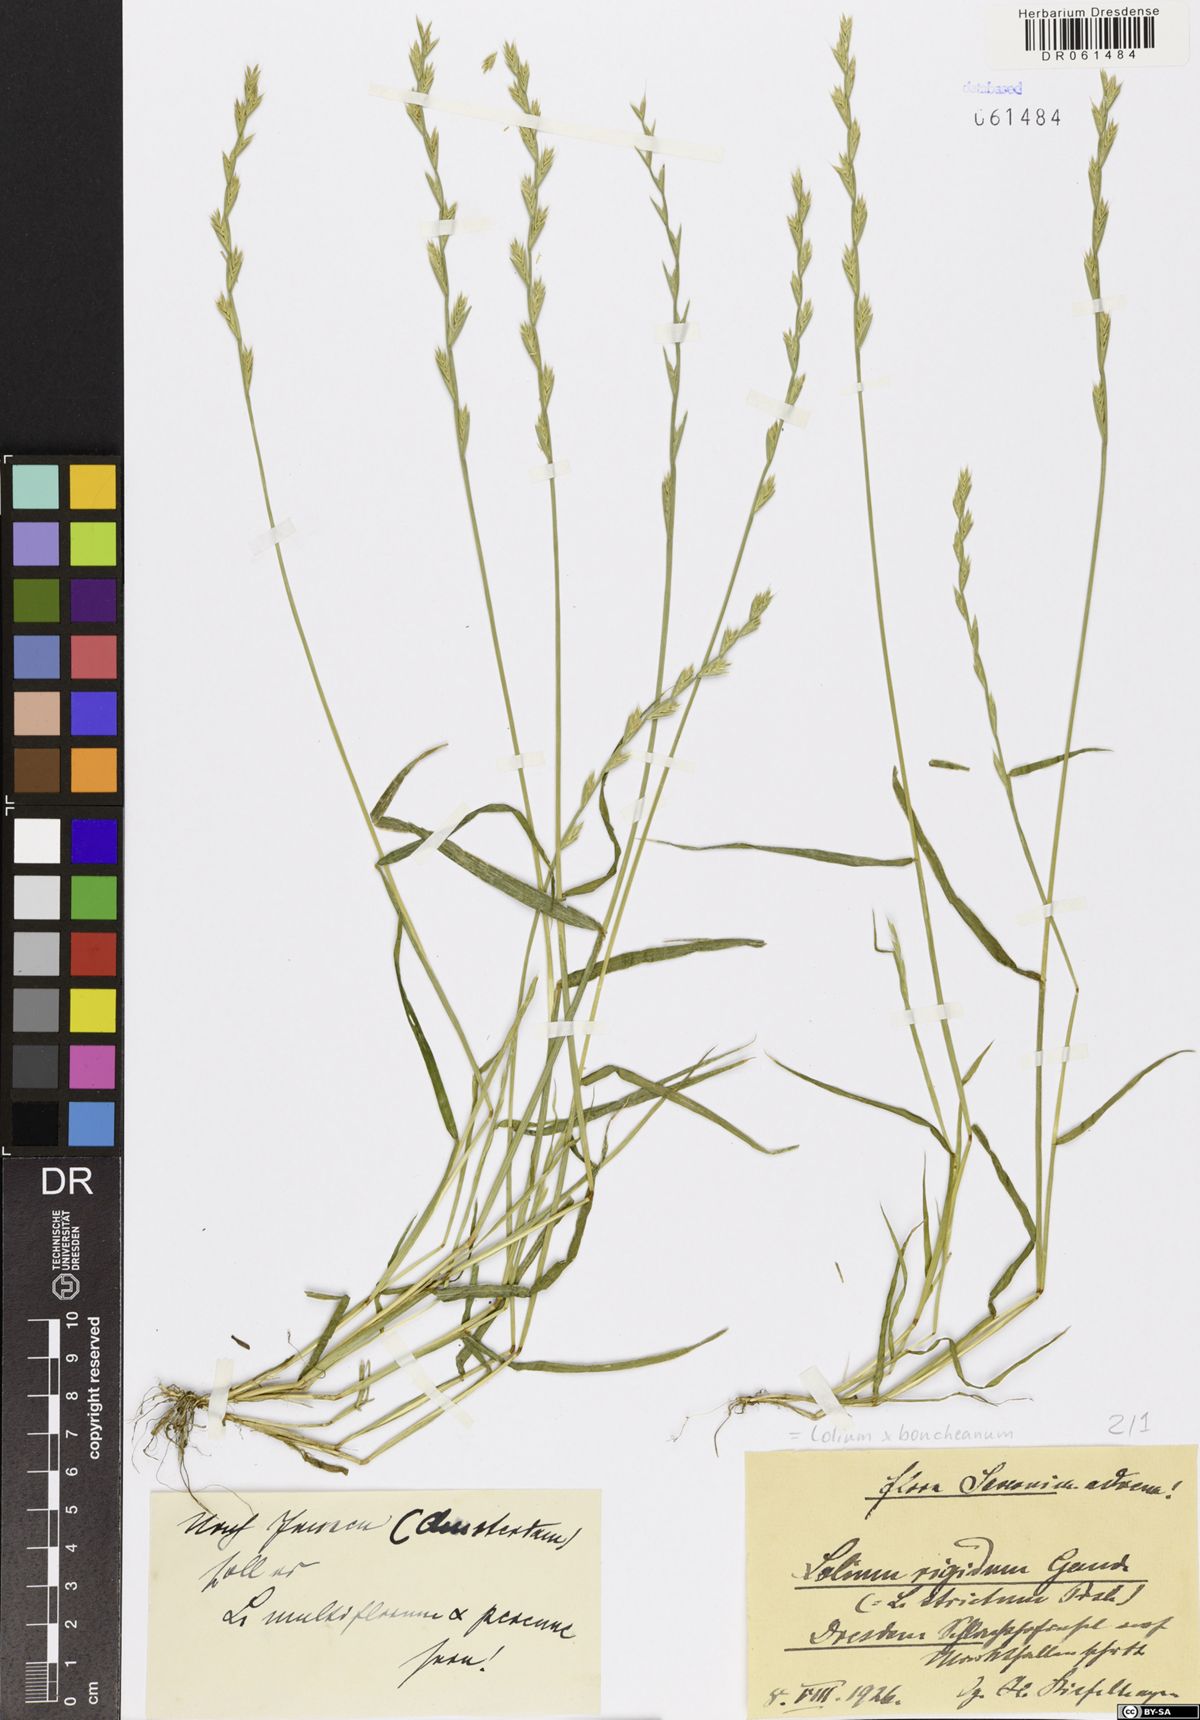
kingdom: Plantae
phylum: Tracheophyta
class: Liliopsida
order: Poales
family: Poaceae
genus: Lolium
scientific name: Lolium boucheanum
